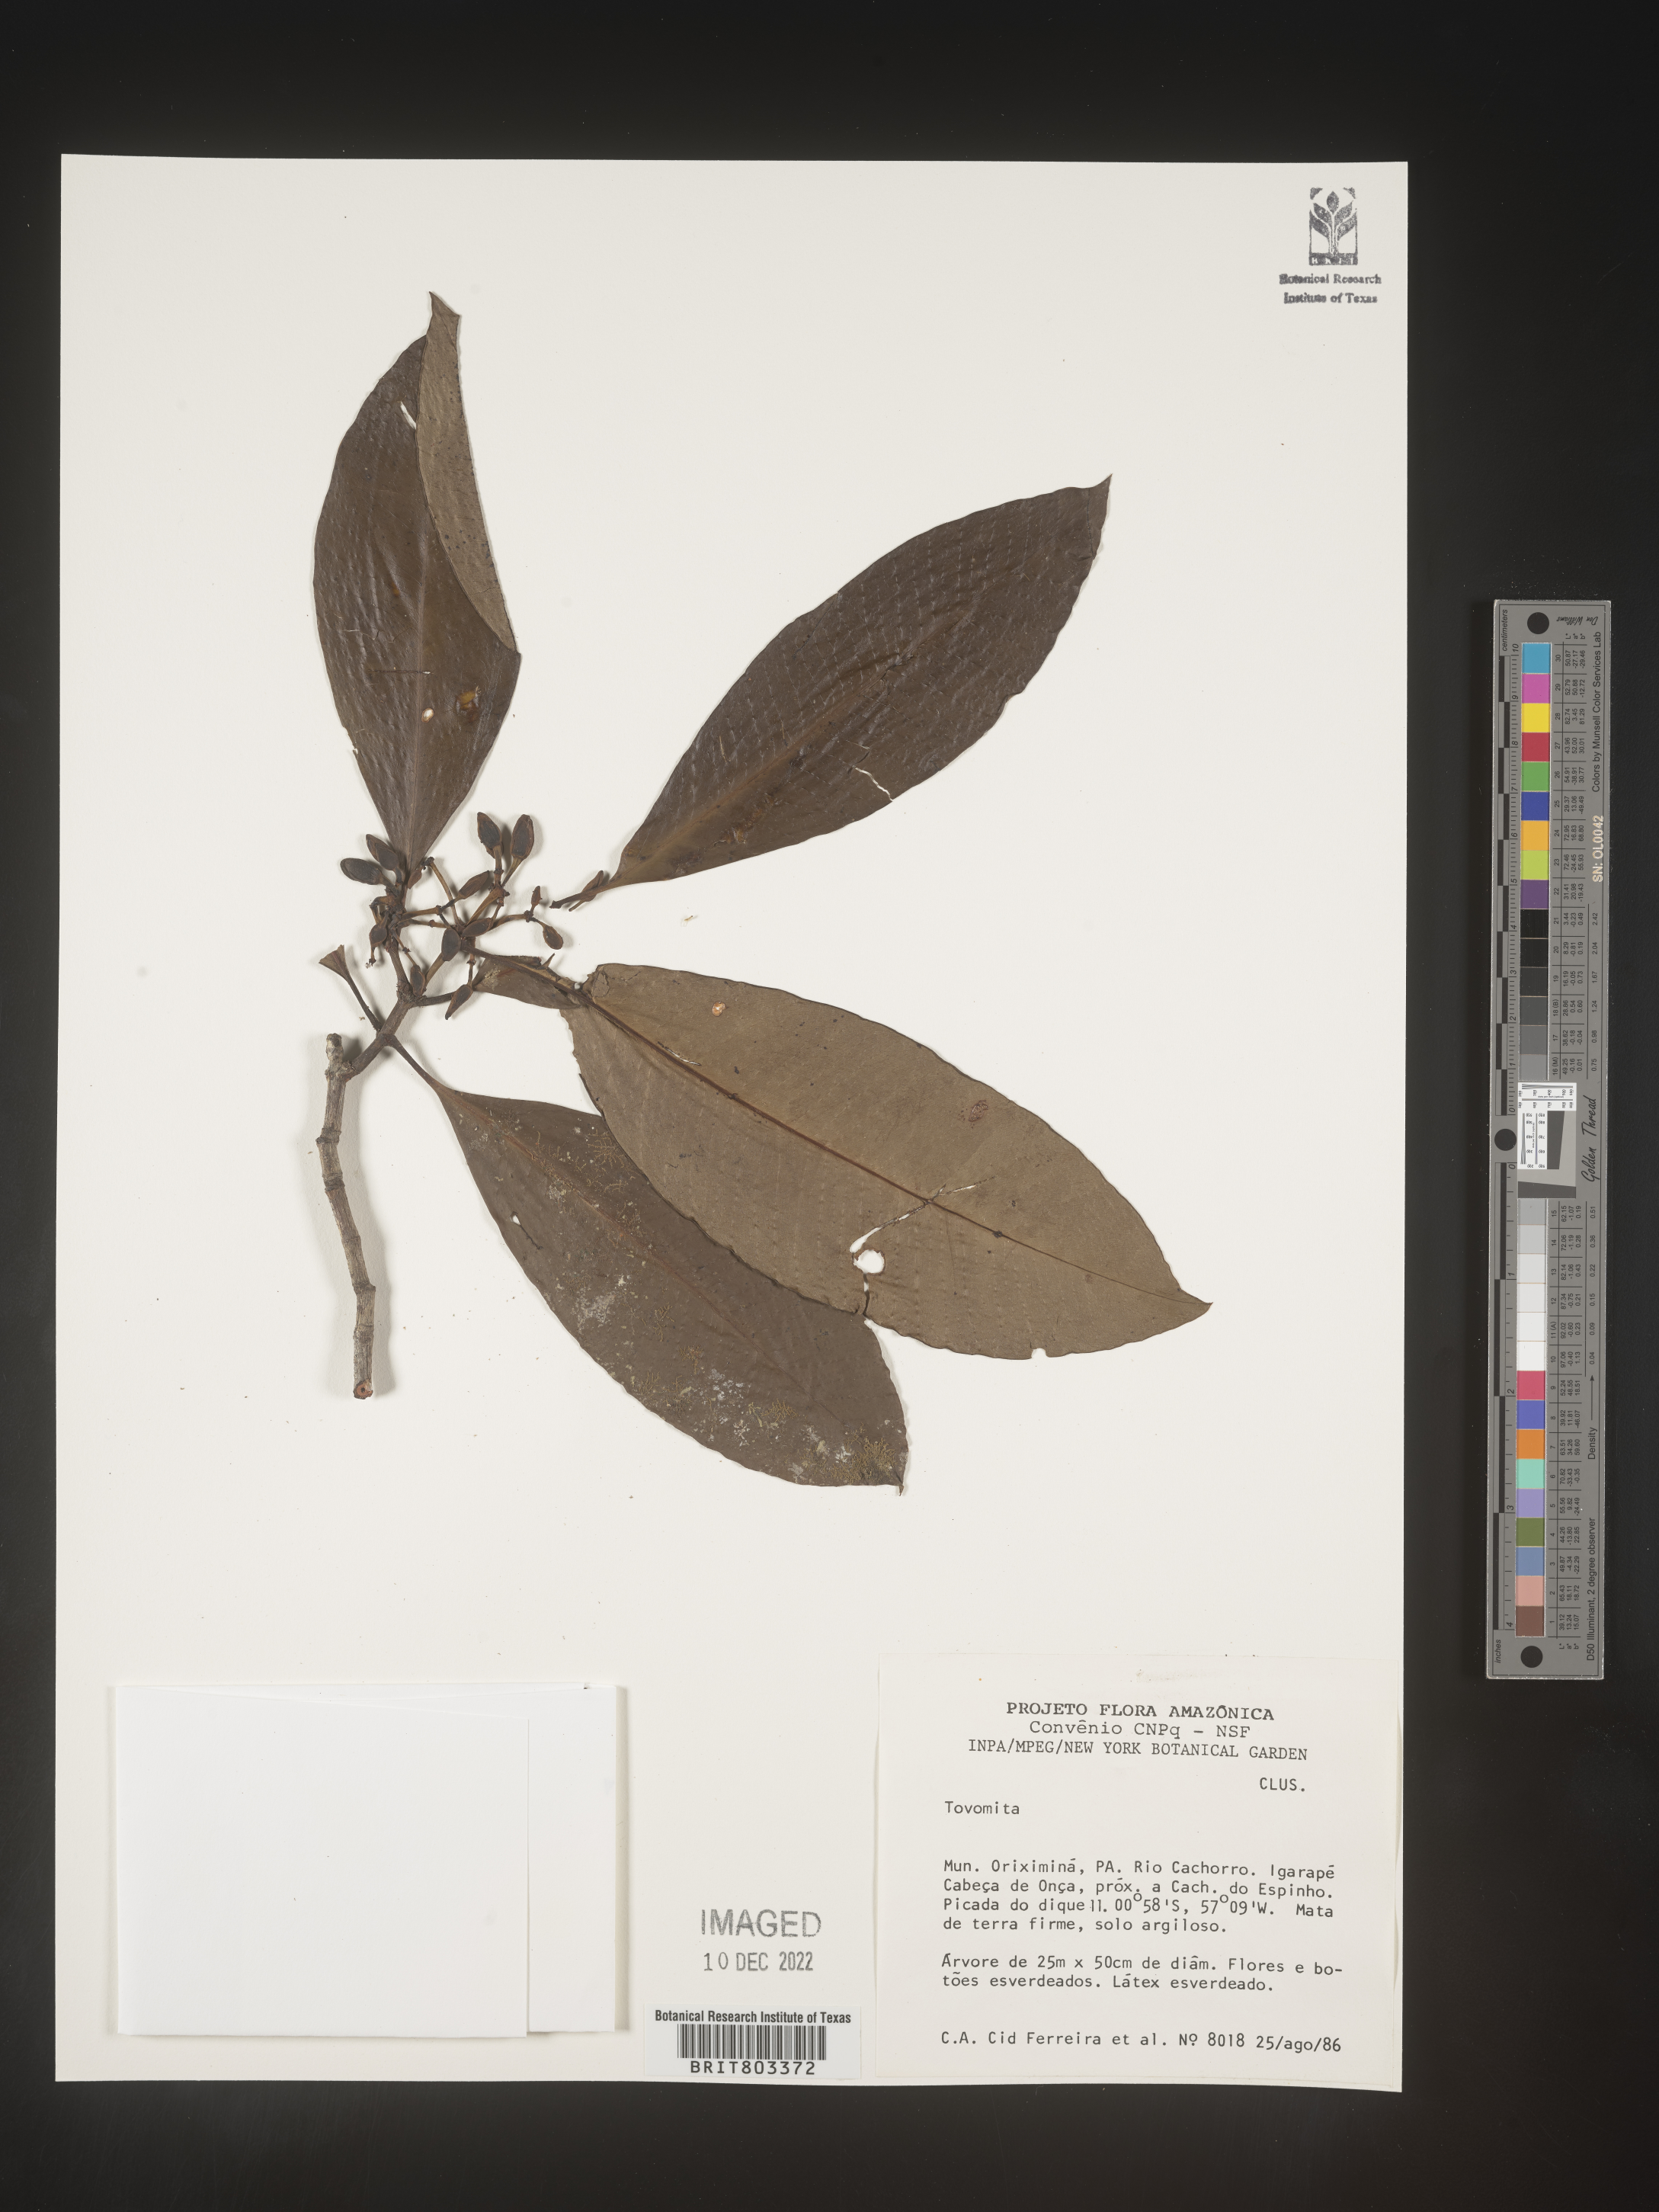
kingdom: Plantae
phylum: Tracheophyta
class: Magnoliopsida
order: Malpighiales
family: Clusiaceae
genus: Tovomita
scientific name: Tovomita
